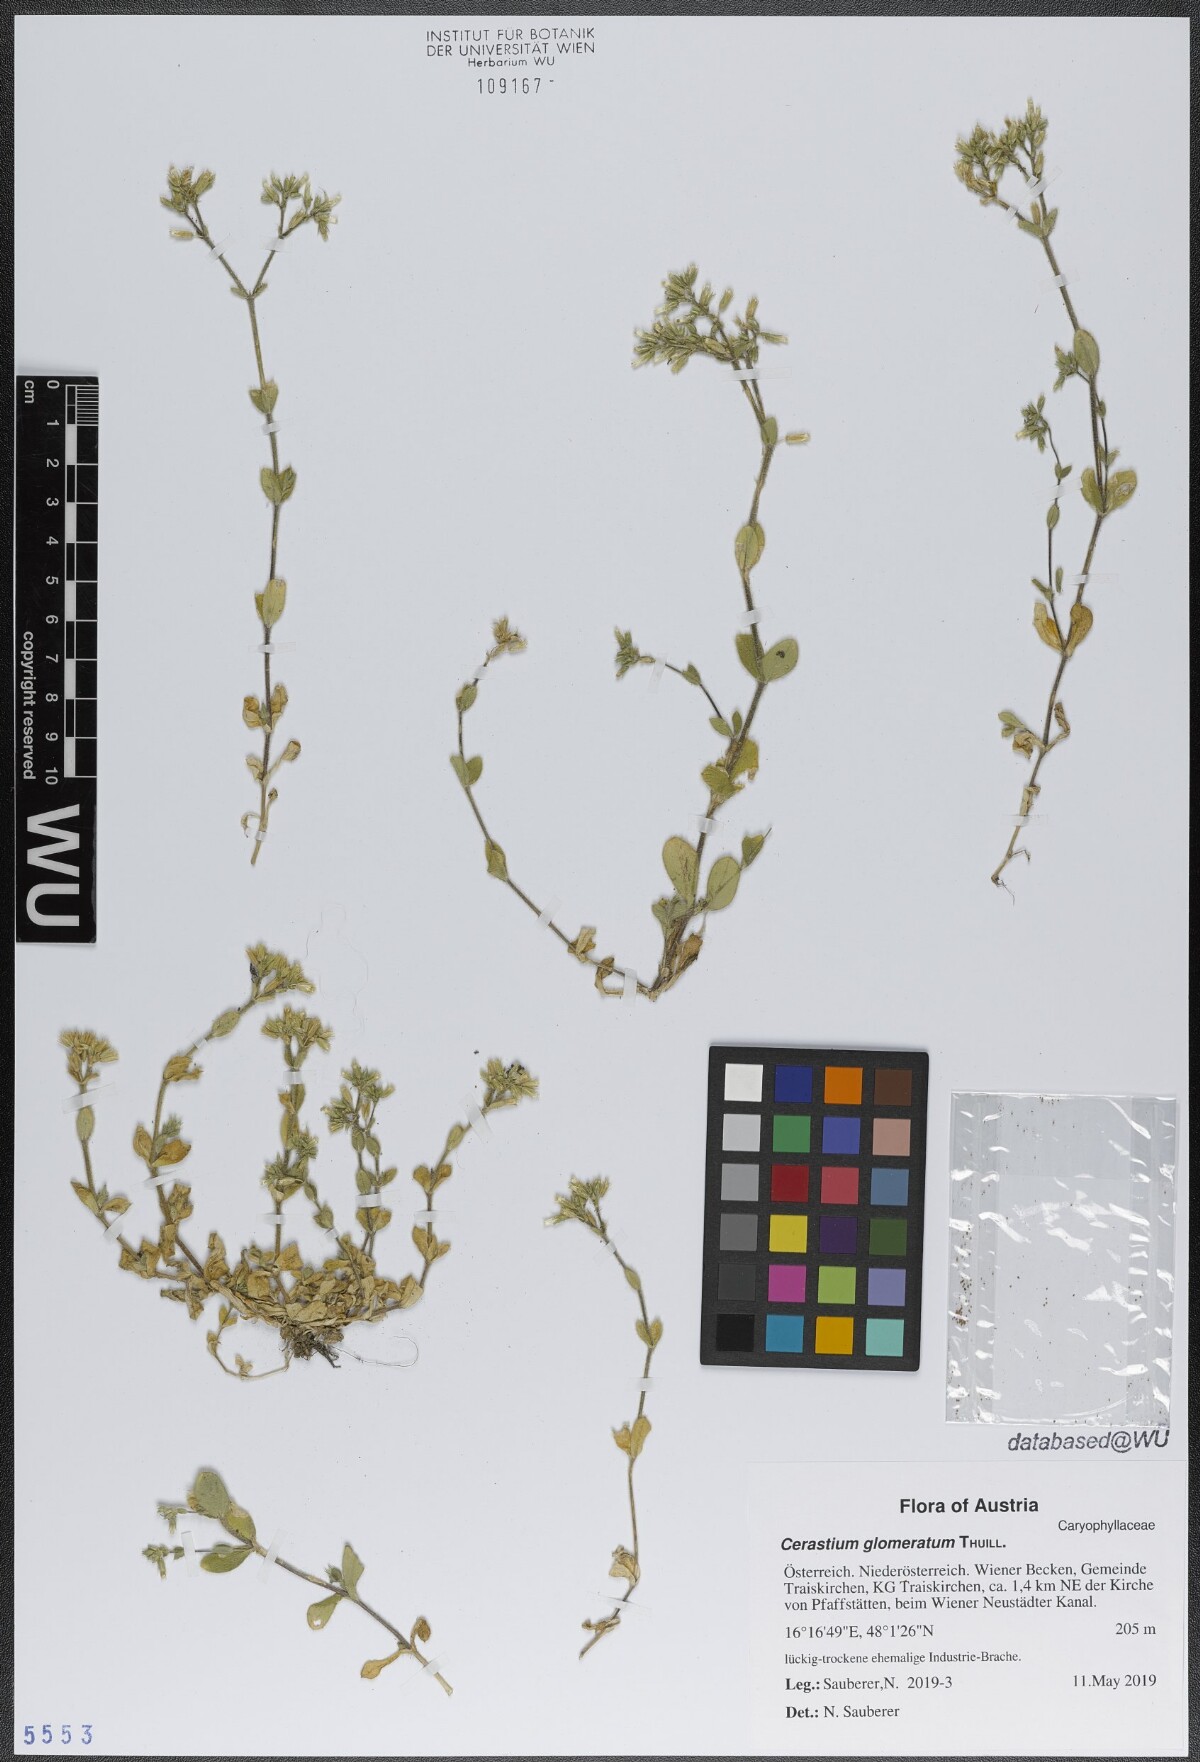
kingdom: Plantae
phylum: Tracheophyta
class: Magnoliopsida
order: Caryophyllales
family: Caryophyllaceae
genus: Cerastium
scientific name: Cerastium glomeratum
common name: Sticky chickweed
